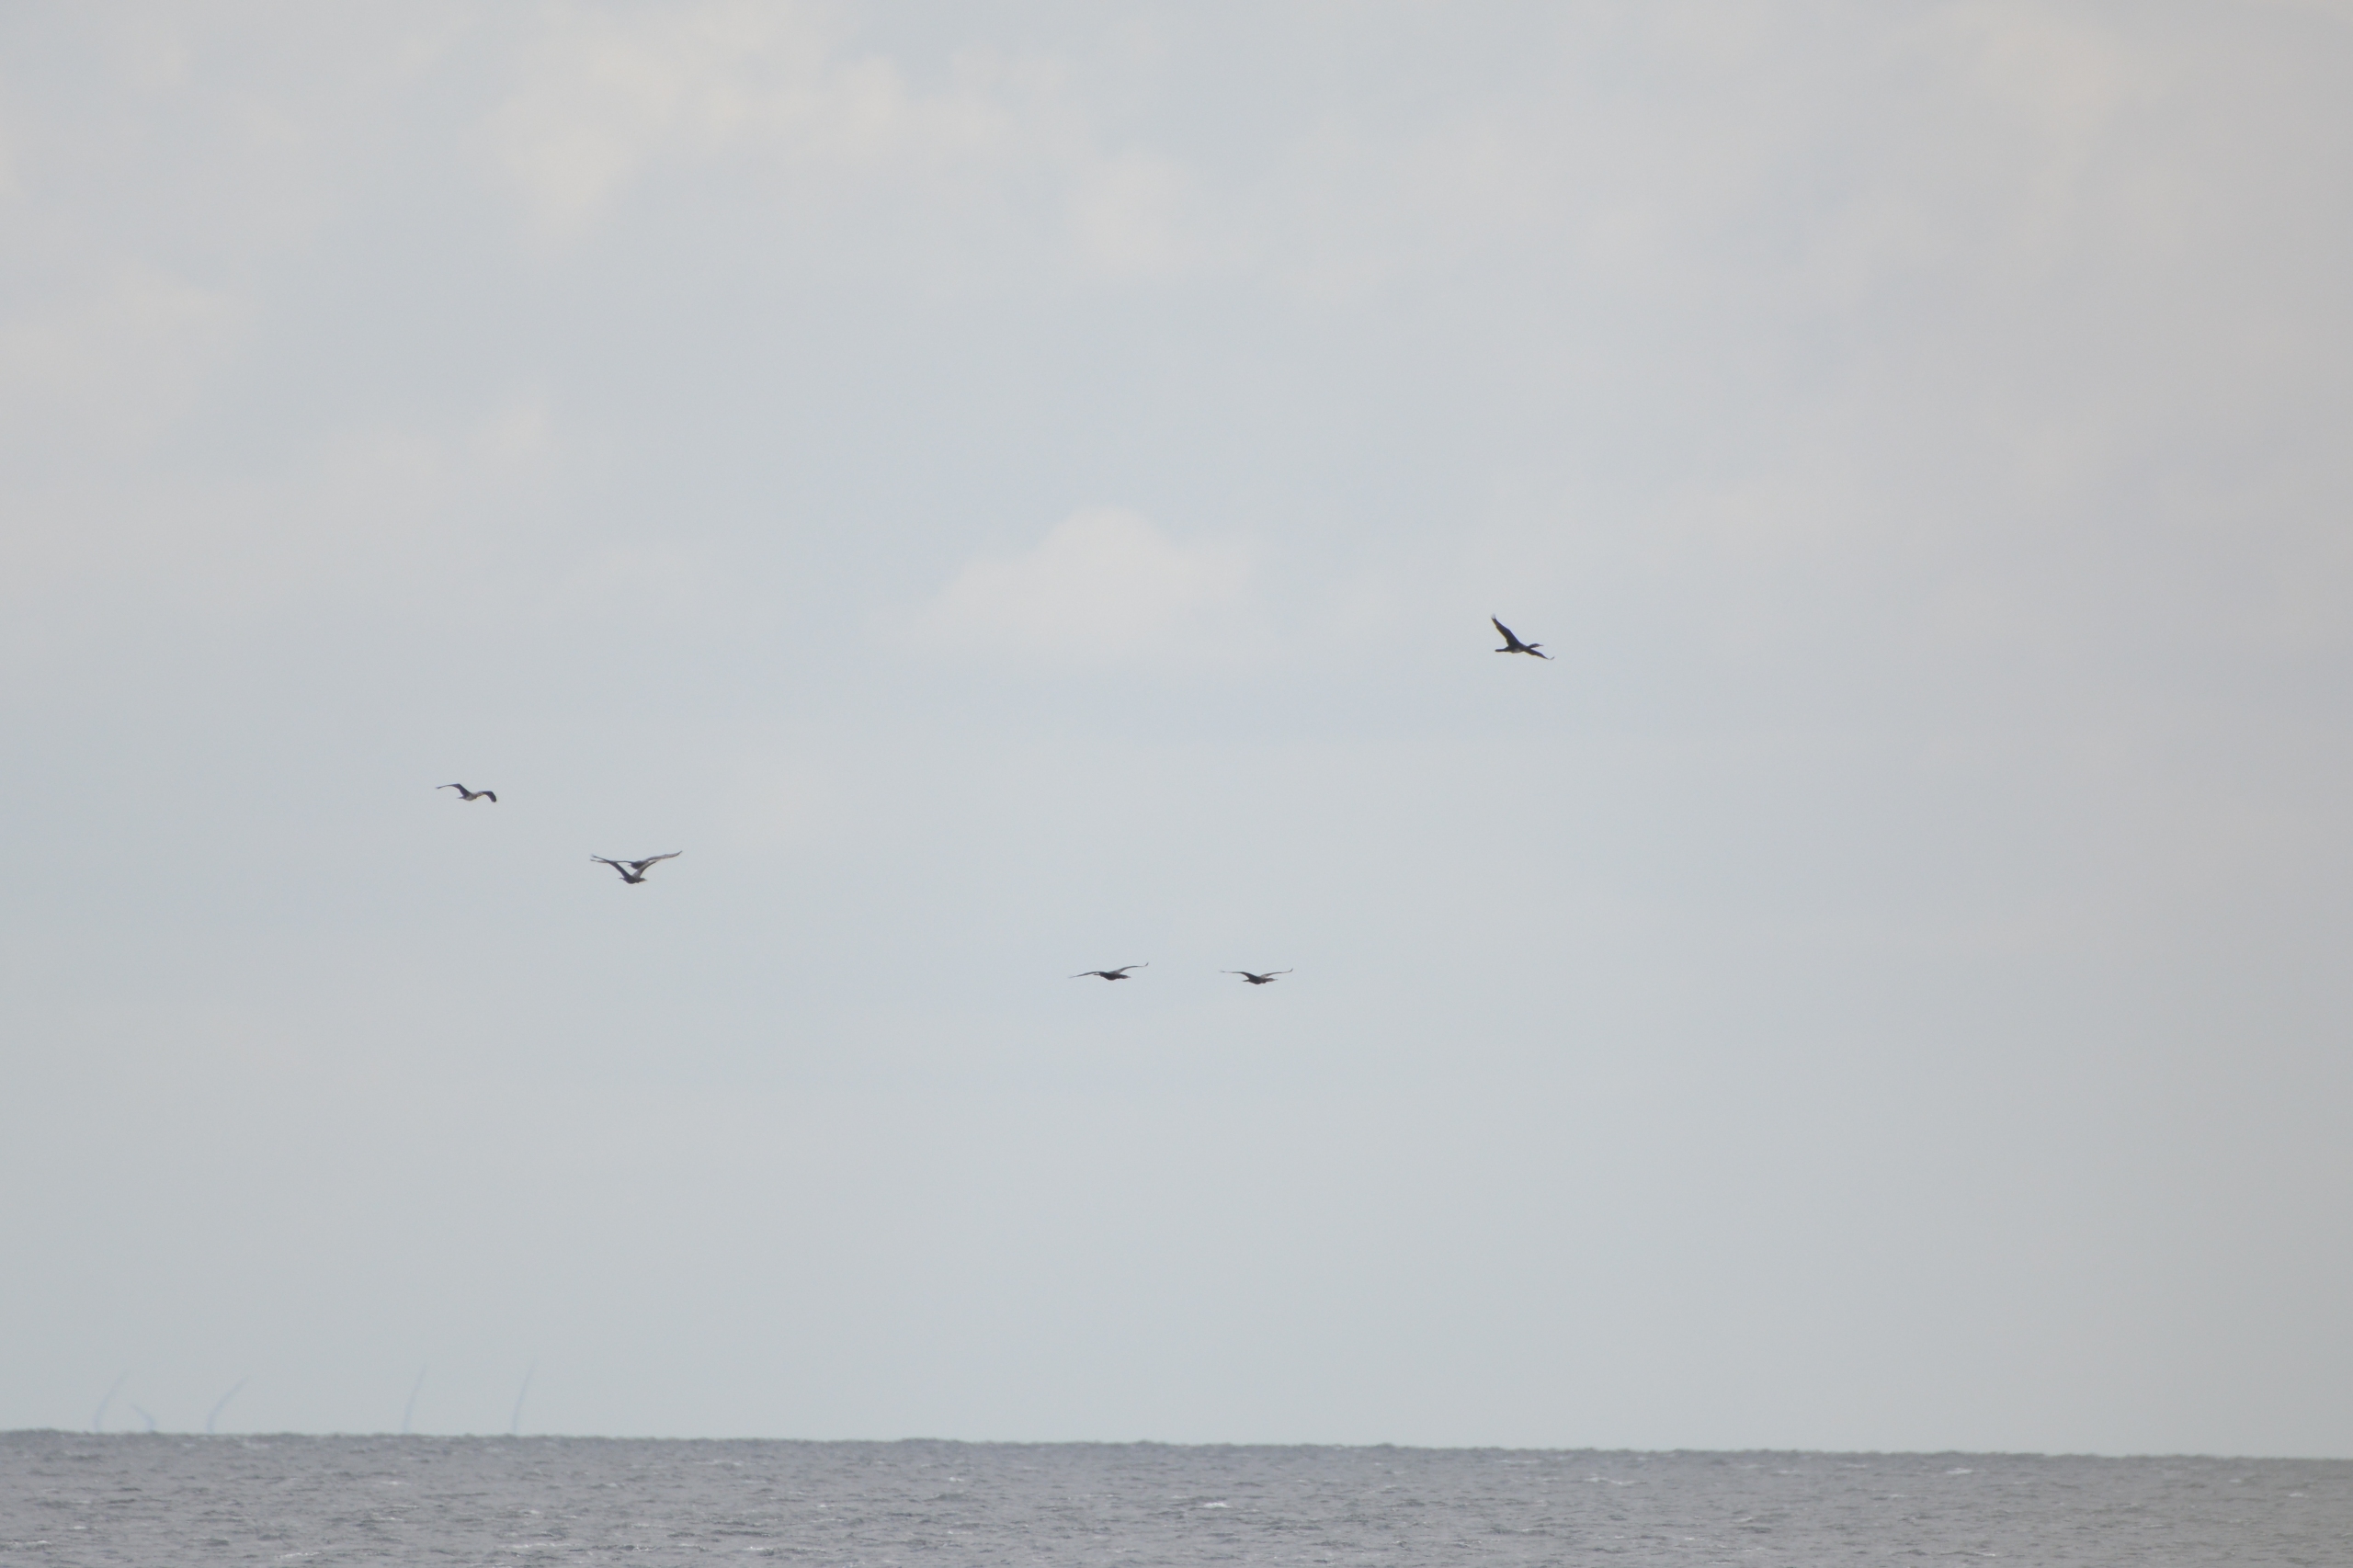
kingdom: Animalia
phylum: Chordata
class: Aves
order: Suliformes
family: Phalacrocoracidae
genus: Phalacrocorax
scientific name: Phalacrocorax carbo
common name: Skarv
